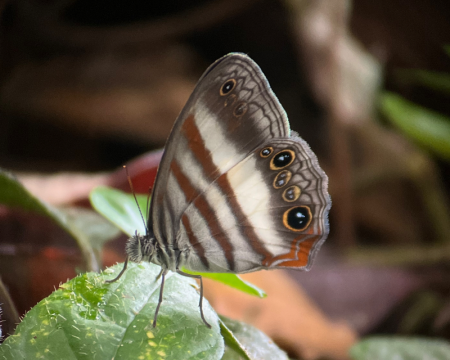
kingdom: Animalia
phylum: Arthropoda
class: Insecta
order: Lepidoptera
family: Nymphalidae
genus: Pareuptychia
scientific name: Pareuptychia metaleuca
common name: White-banded Satyr
